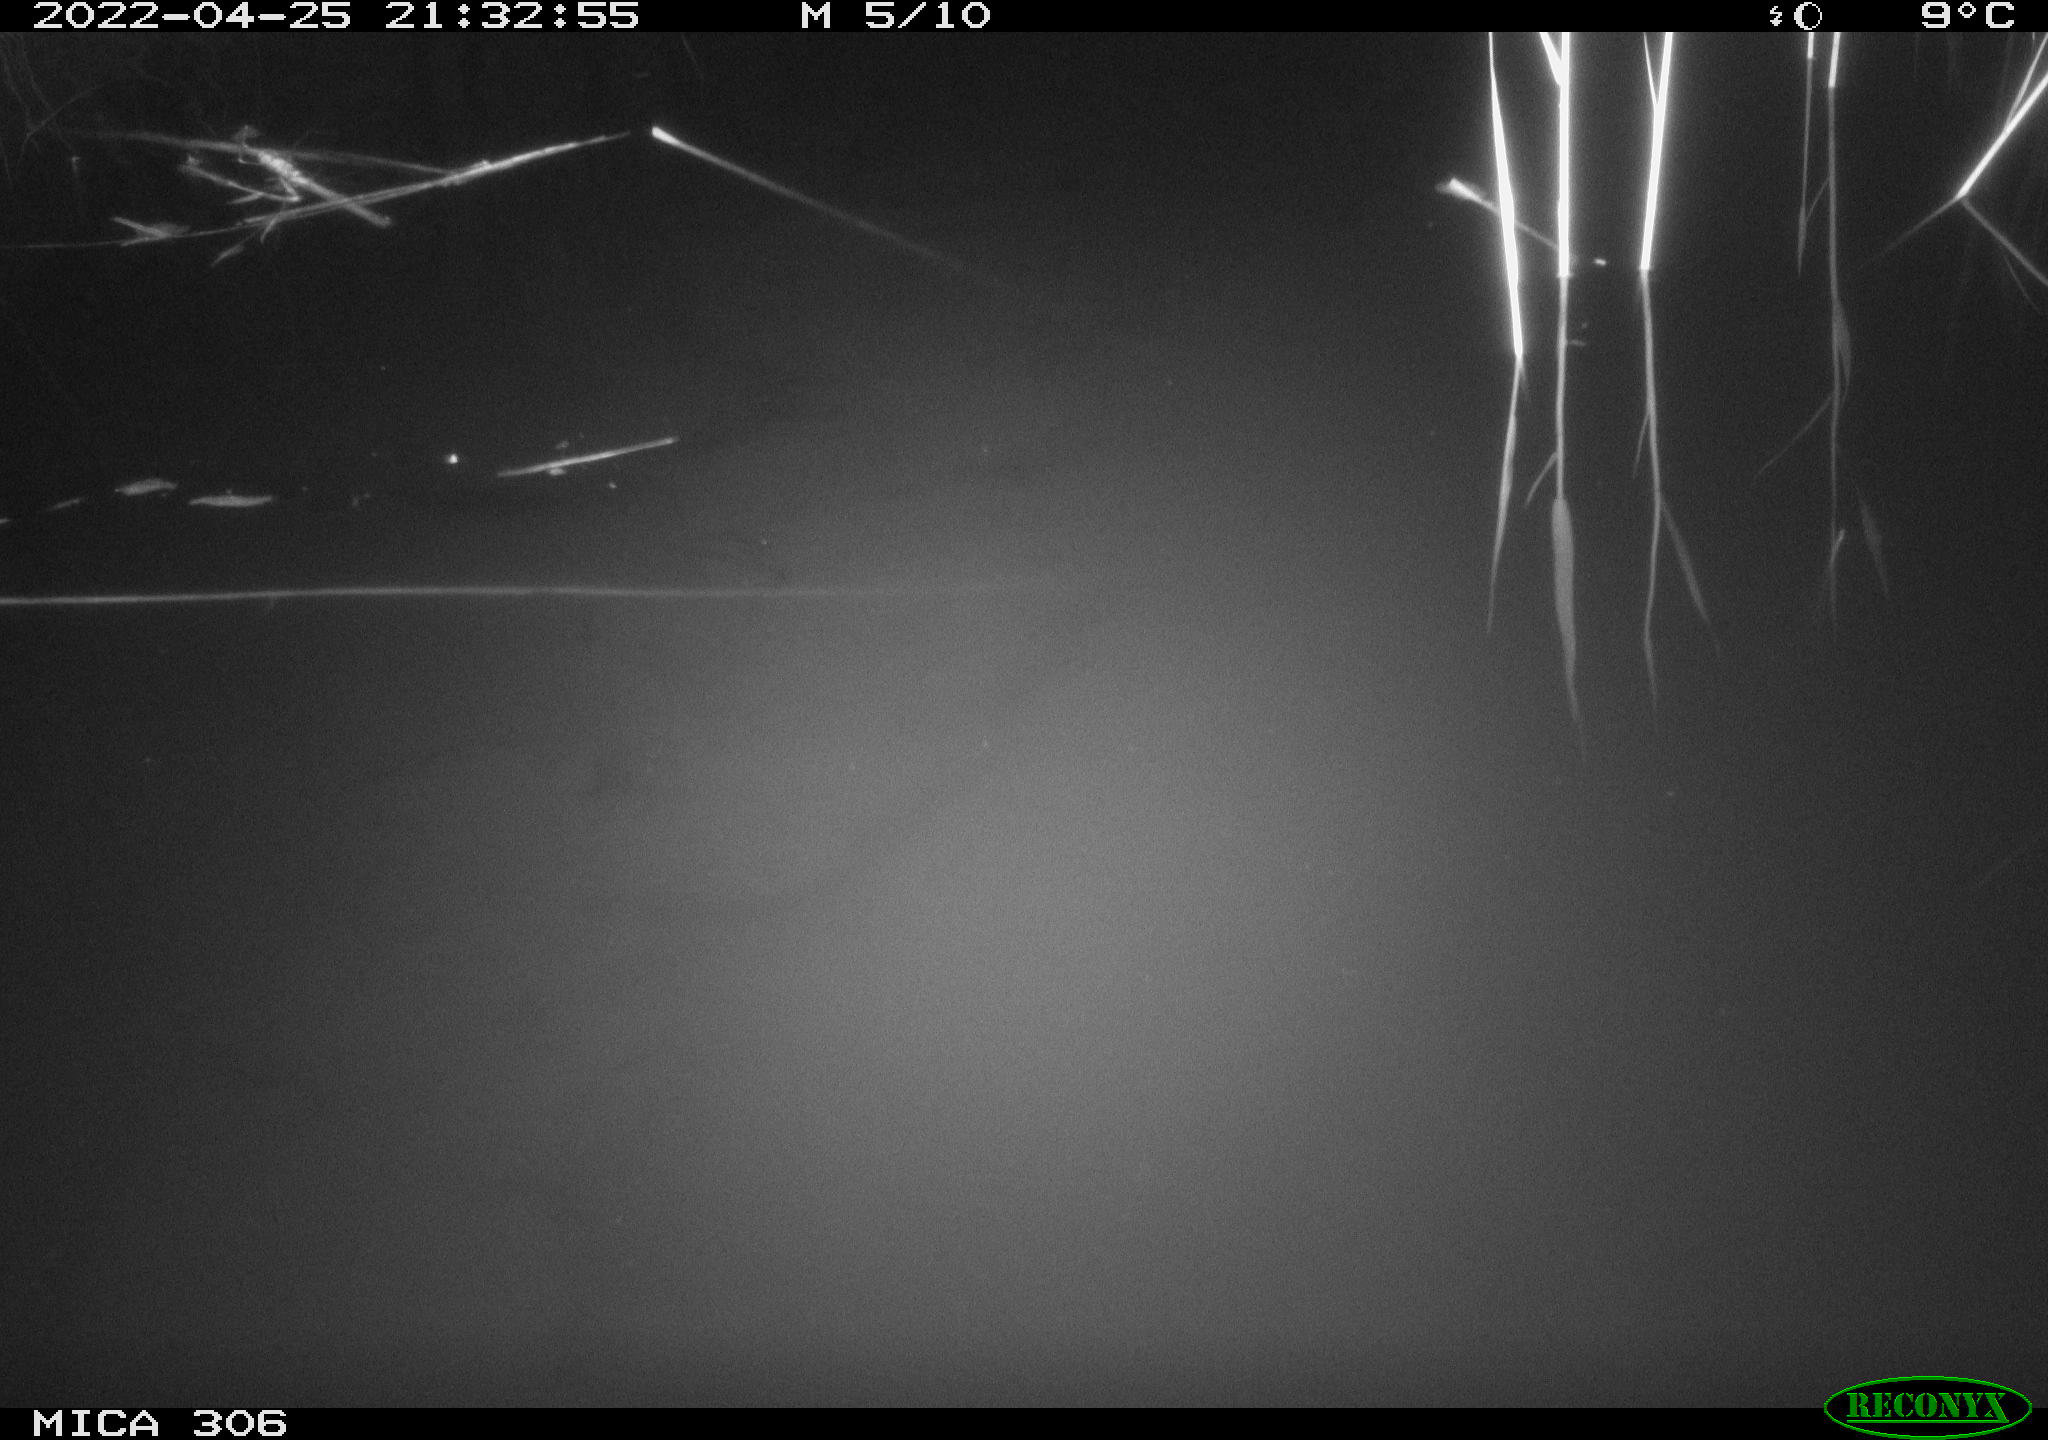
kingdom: Animalia
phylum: Chordata
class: Aves
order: Gruiformes
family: Rallidae
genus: Gallinula
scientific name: Gallinula chloropus
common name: Common moorhen
